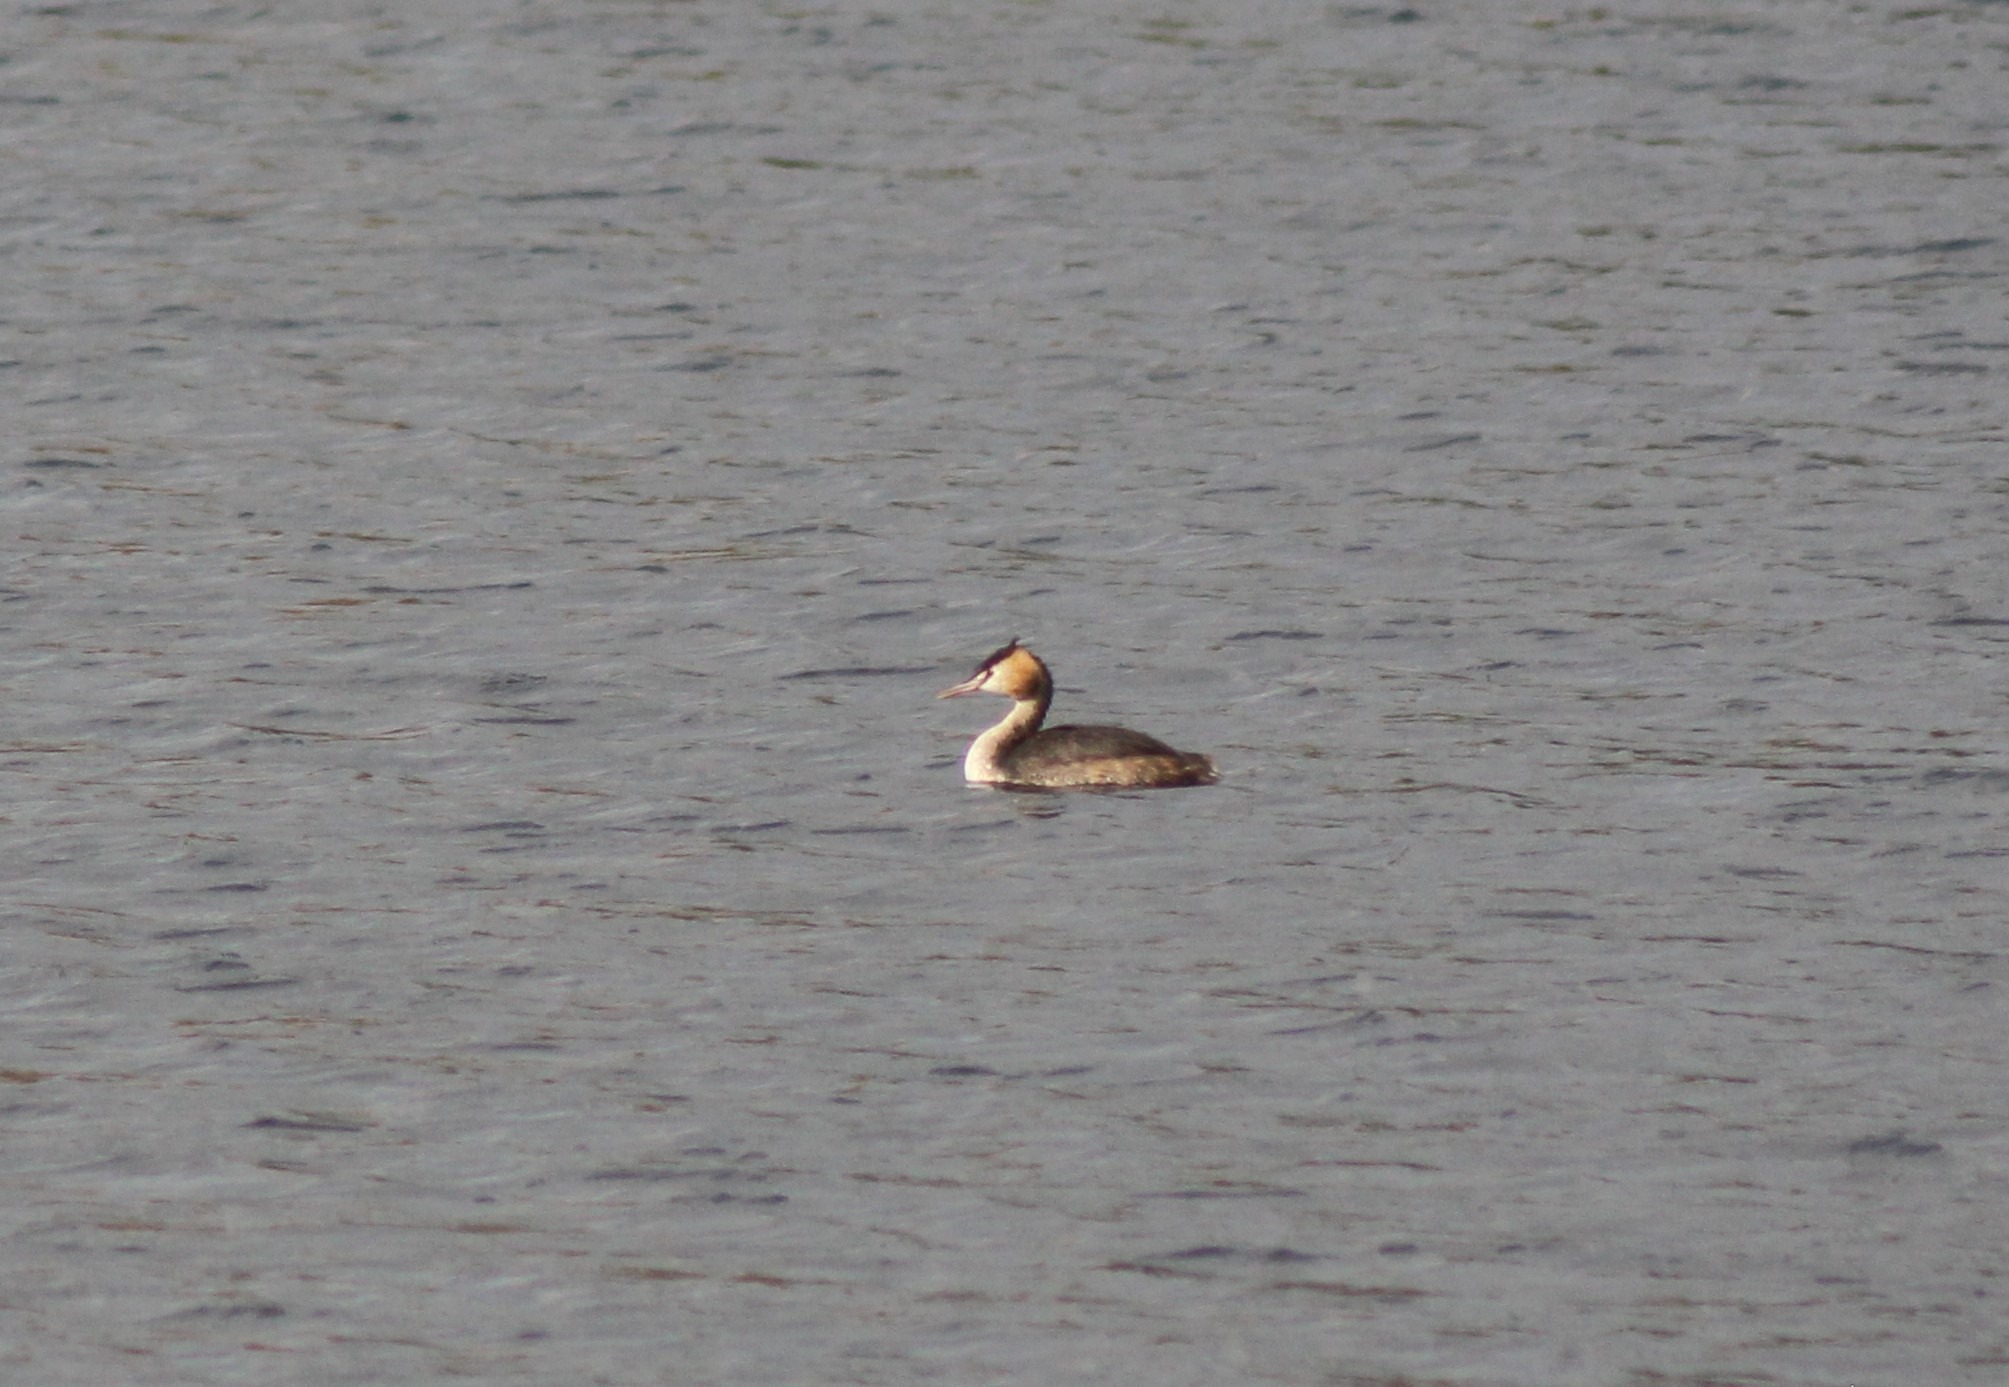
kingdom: Animalia
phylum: Chordata
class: Aves
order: Podicipediformes
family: Podicipedidae
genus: Podiceps
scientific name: Podiceps cristatus
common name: Toppet lappedykker
